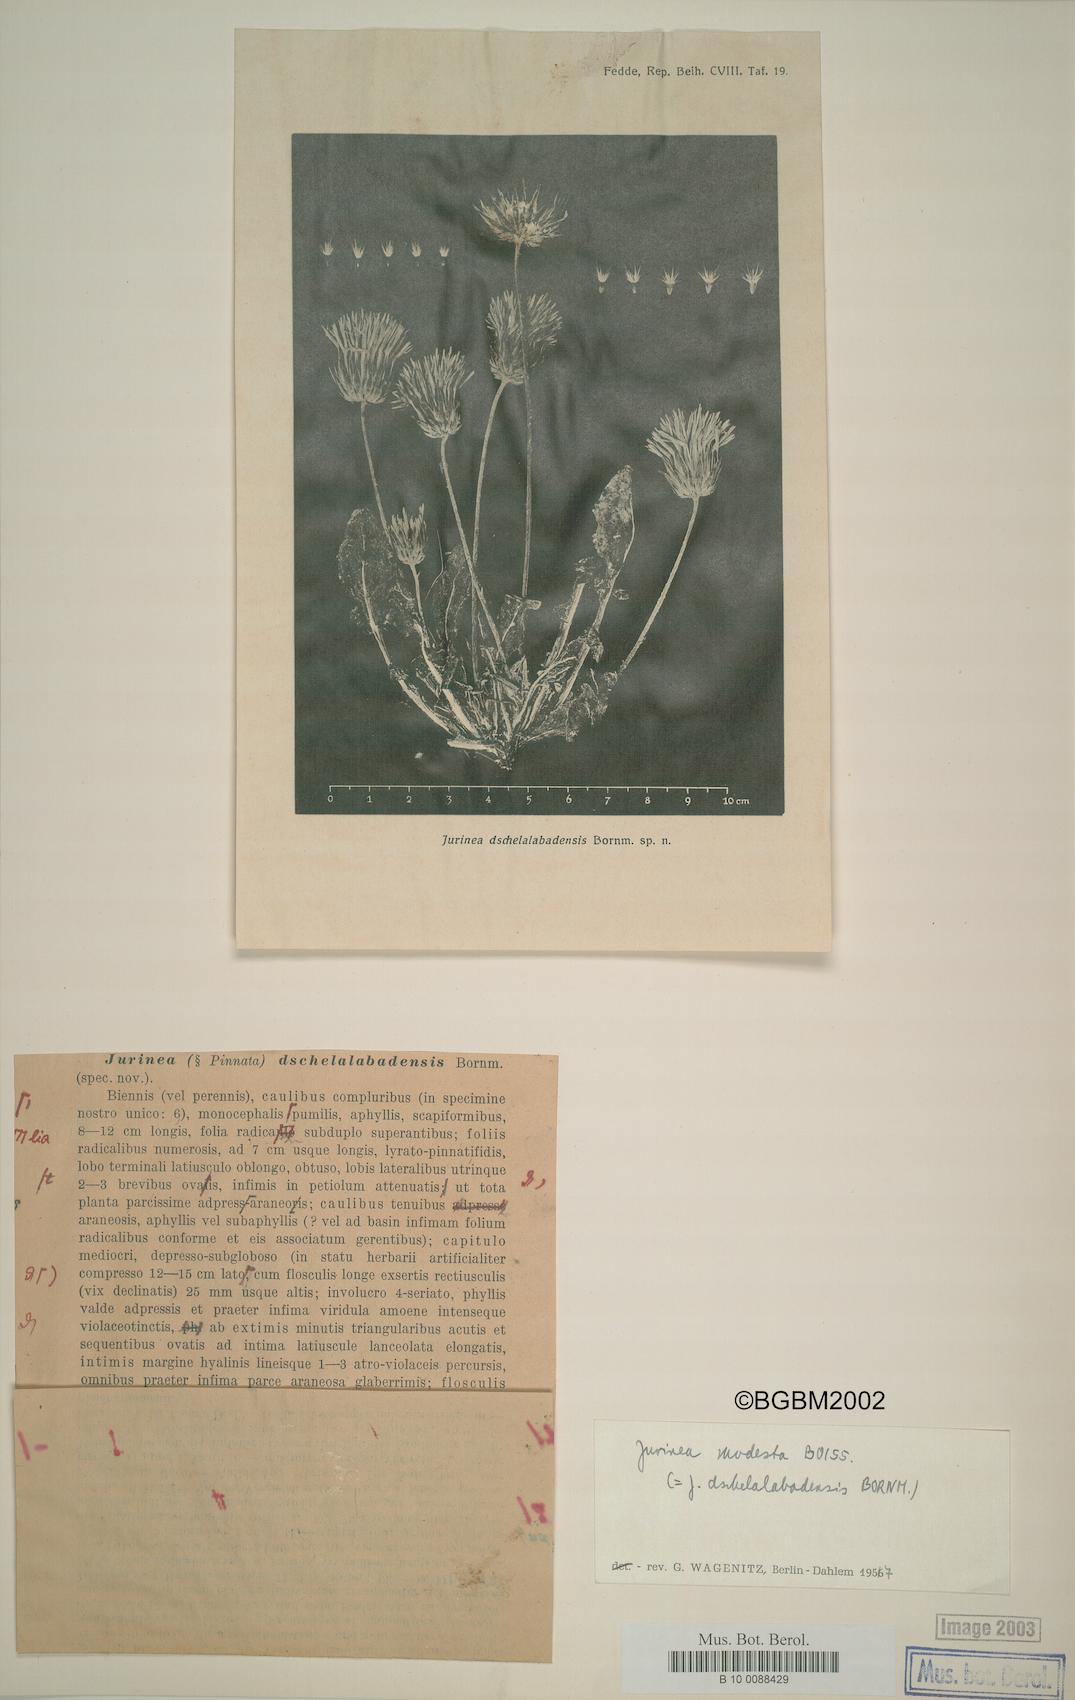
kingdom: Plantae
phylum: Tracheophyta
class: Magnoliopsida
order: Asterales
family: Asteraceae
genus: Jurinea
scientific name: Jurinea modesta
